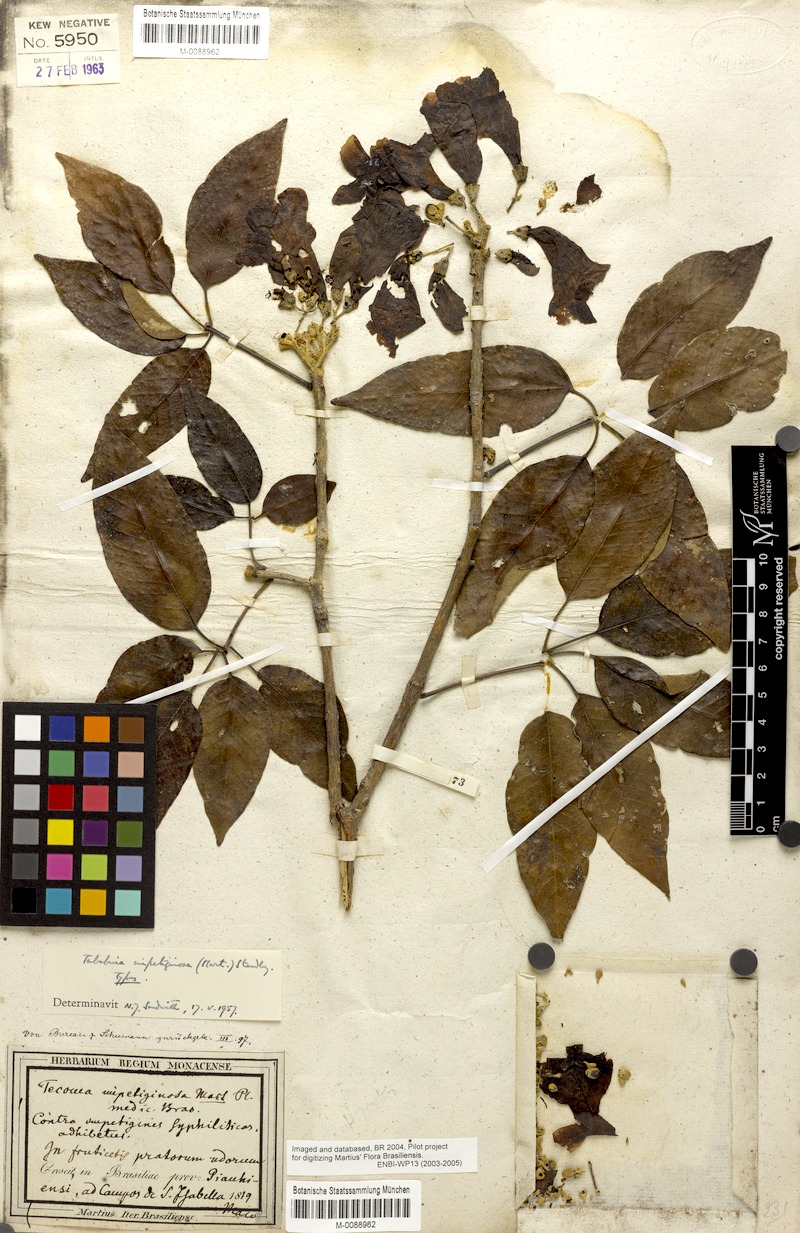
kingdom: Plantae
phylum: Tracheophyta
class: Magnoliopsida
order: Lamiales
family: Bignoniaceae
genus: Handroanthus
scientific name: Handroanthus impetiginosum
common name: Pink trumpet tree
